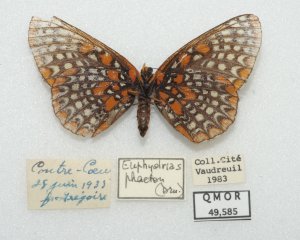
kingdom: Animalia
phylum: Arthropoda
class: Insecta
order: Lepidoptera
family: Nymphalidae
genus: Euphydryas
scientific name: Euphydryas phaeton
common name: Baltimore Checkerspot
